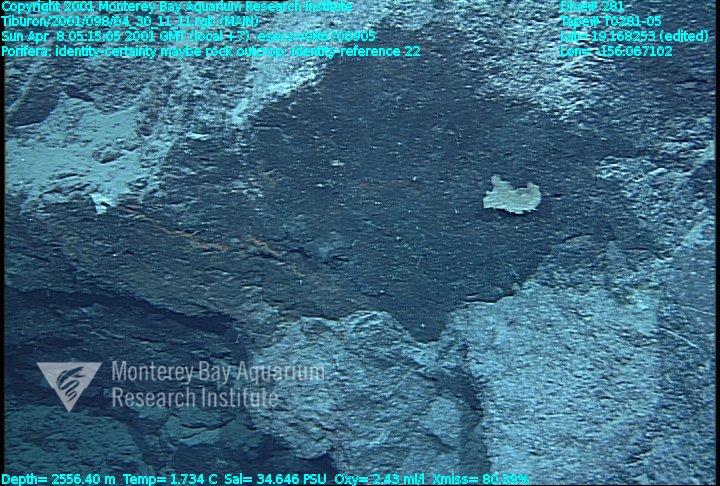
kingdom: Animalia
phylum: Porifera
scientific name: Porifera
